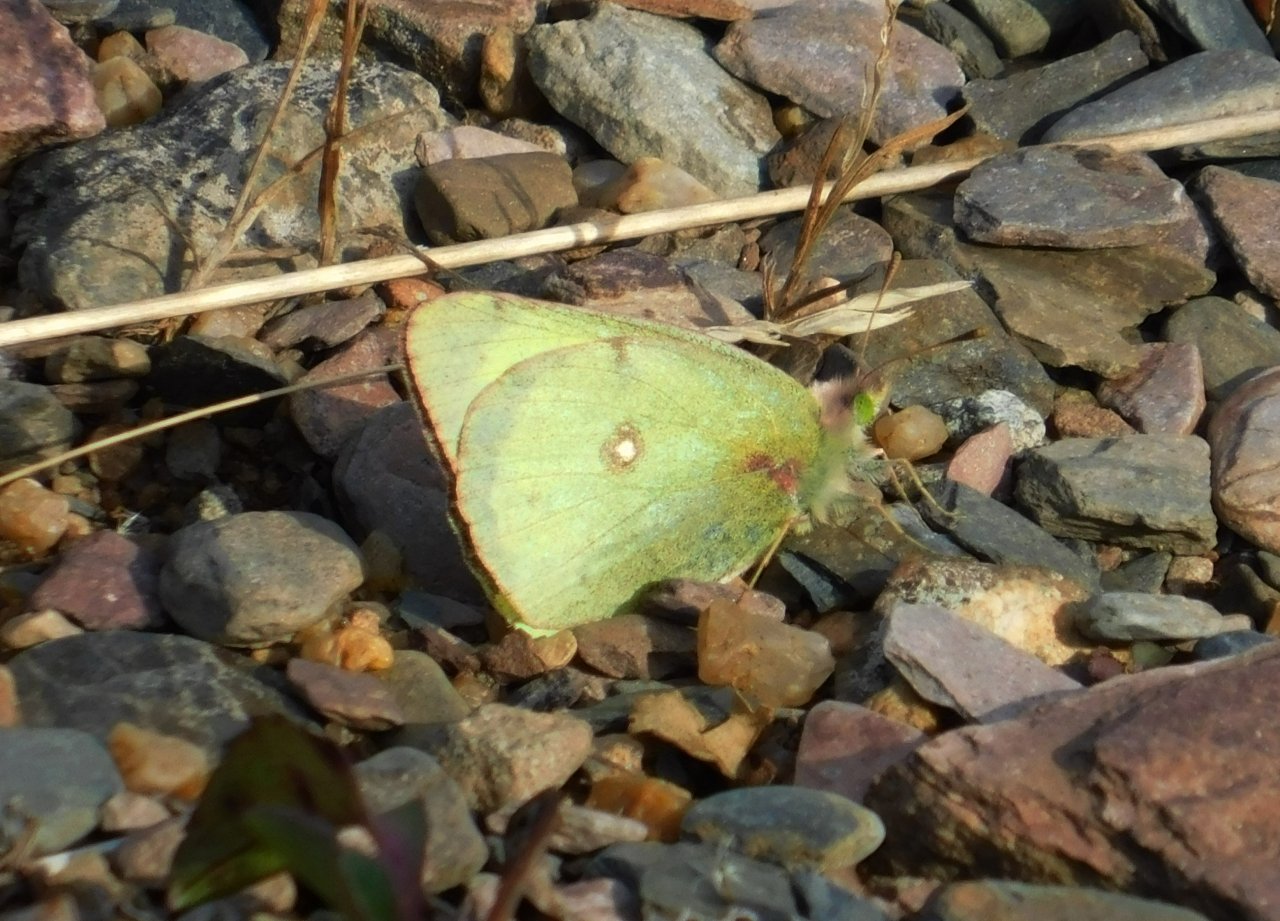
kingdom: Animalia
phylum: Arthropoda
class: Insecta
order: Lepidoptera
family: Pieridae
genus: Colias
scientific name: Colias philodice
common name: Clouded Sulphur
